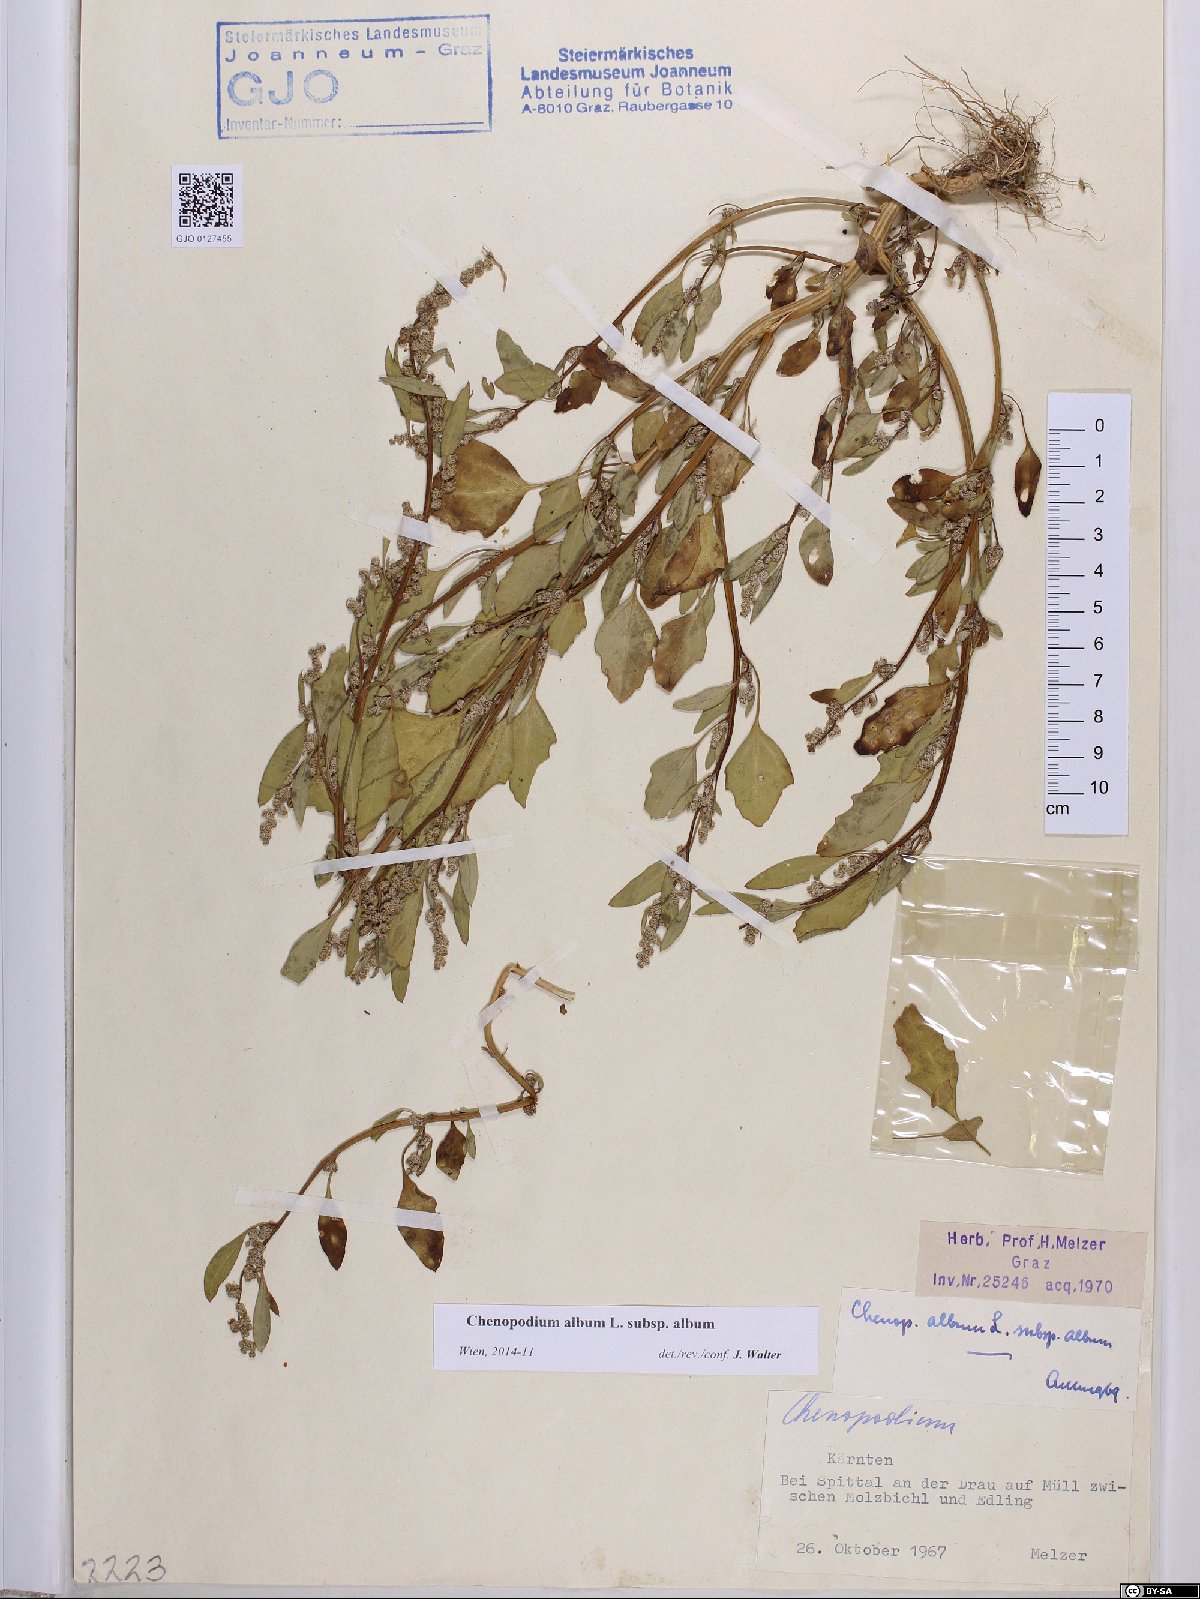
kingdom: Plantae
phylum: Tracheophyta
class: Magnoliopsida
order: Caryophyllales
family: Amaranthaceae
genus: Chenopodium
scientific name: Chenopodium album
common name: Fat-hen
